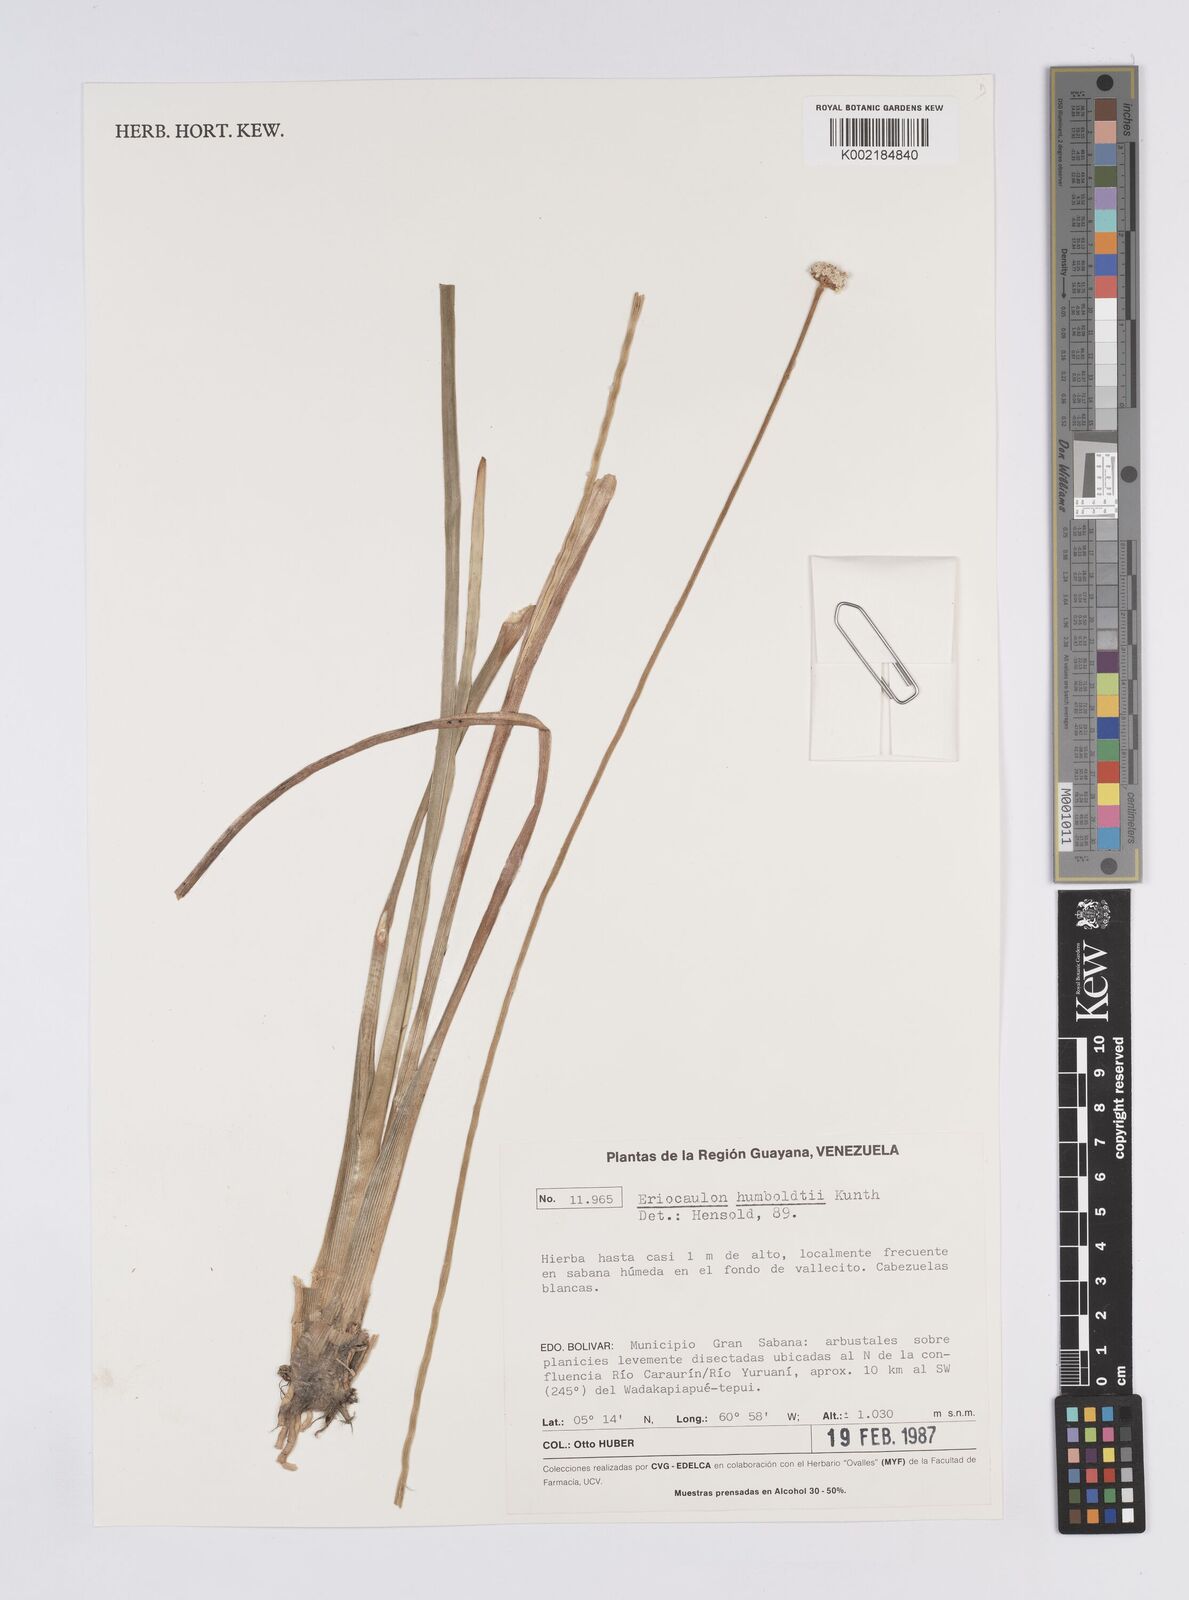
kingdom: Plantae
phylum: Tracheophyta
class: Liliopsida
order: Poales
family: Eriocaulaceae
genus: Eriocaulon
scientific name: Eriocaulon humboldtii
